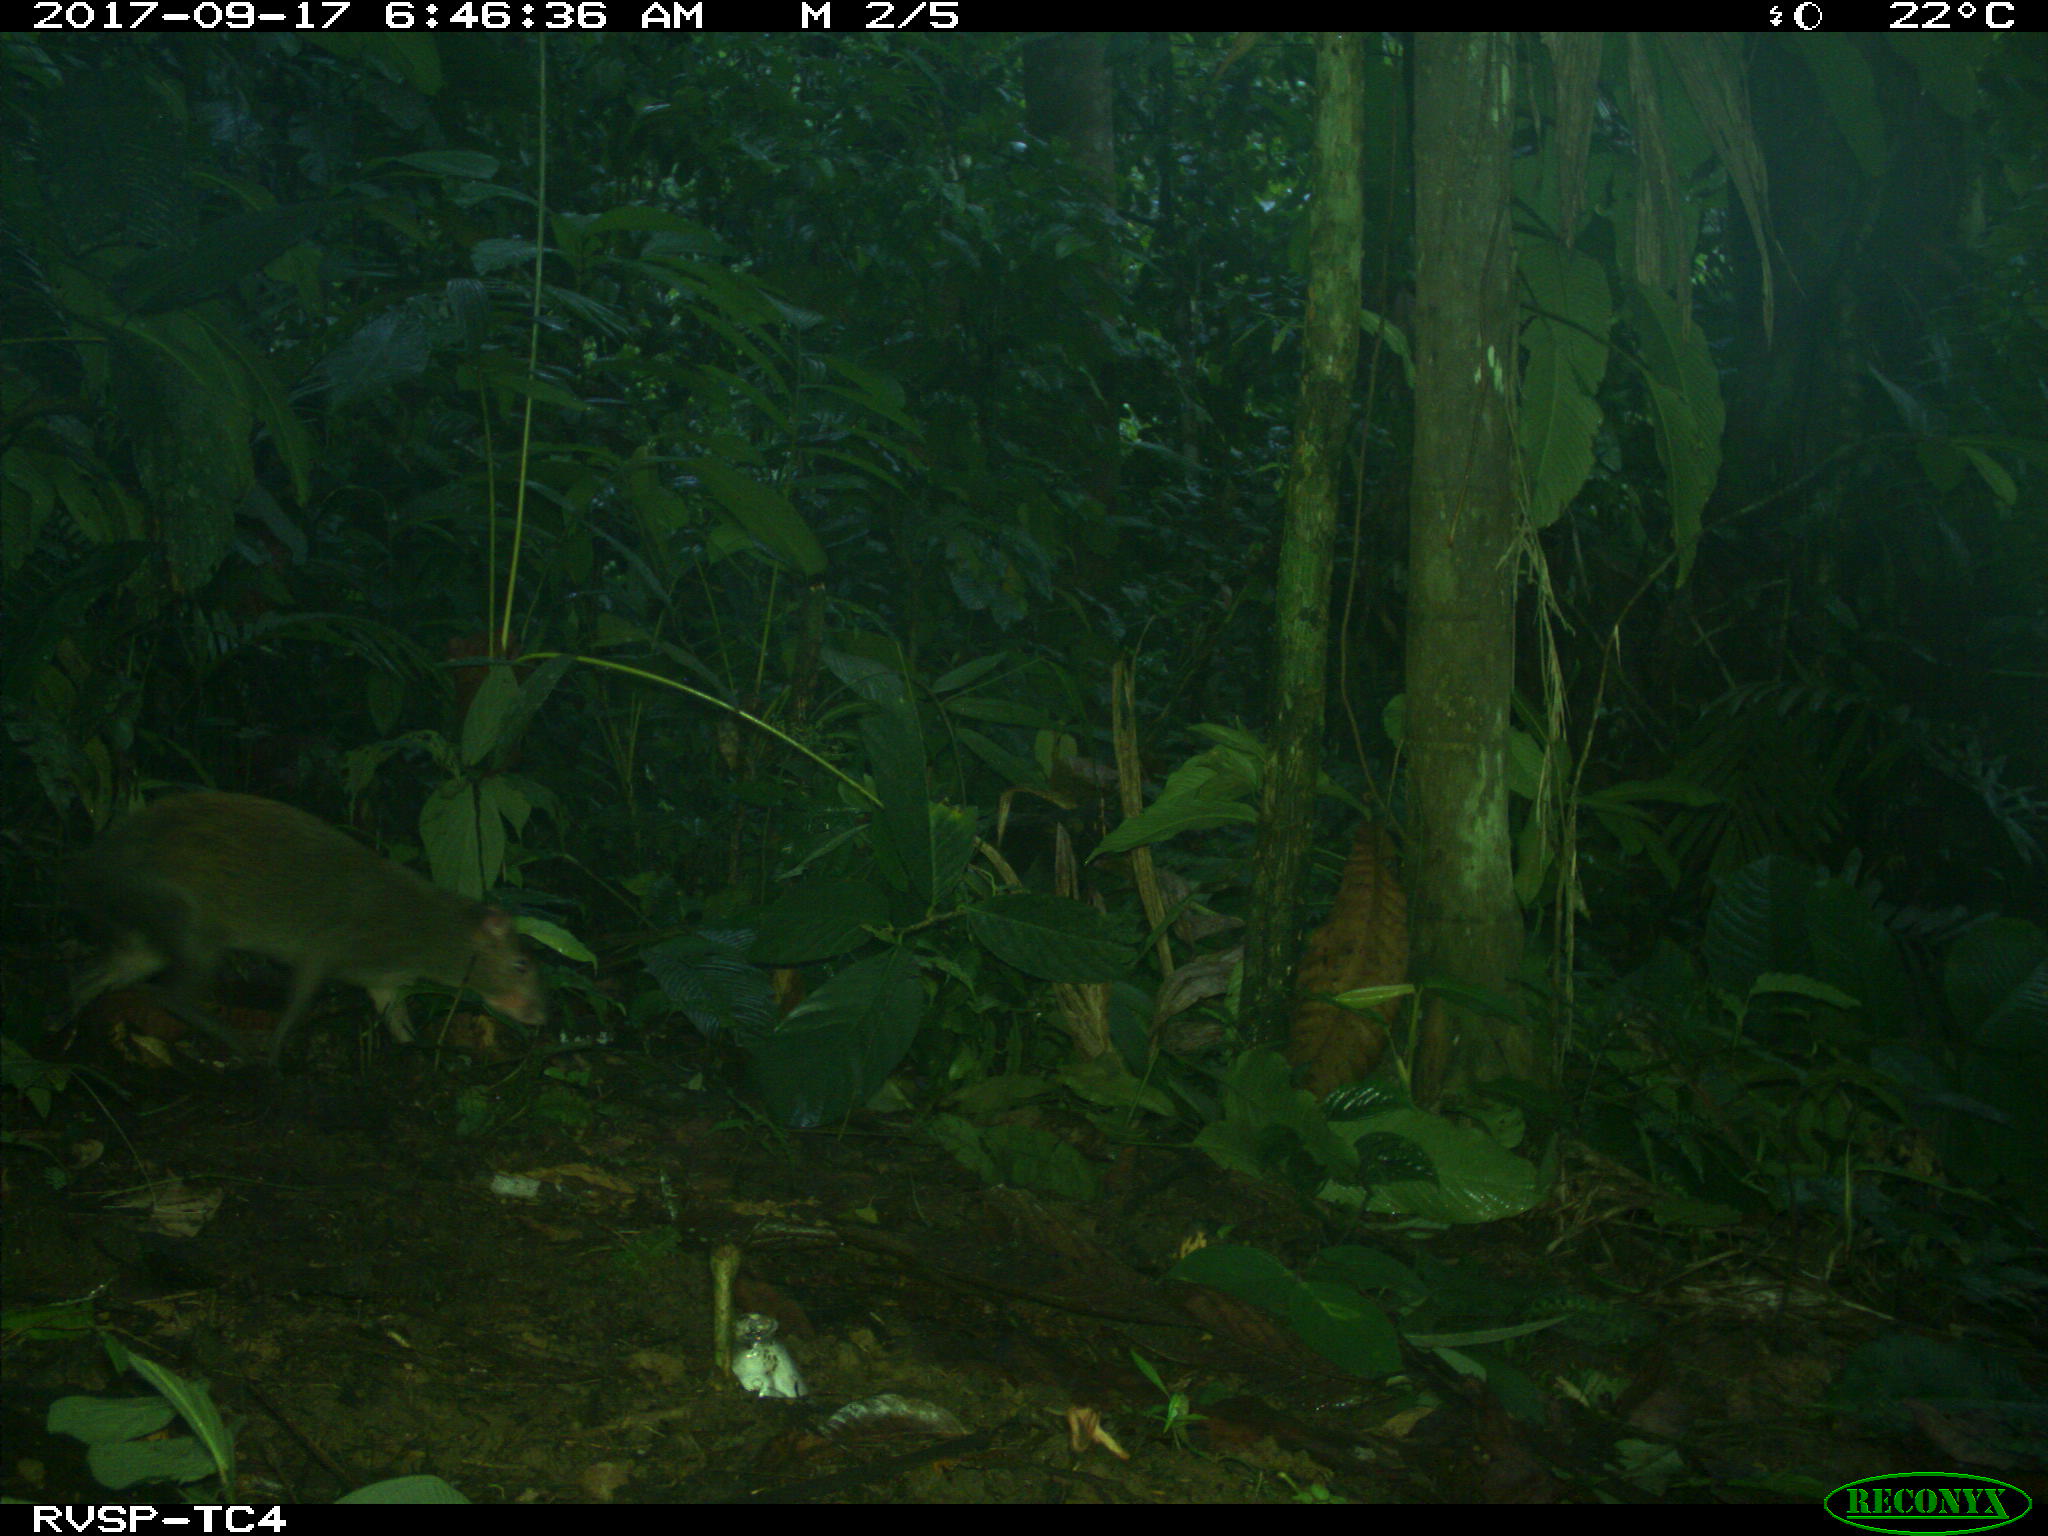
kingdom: Animalia
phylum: Chordata
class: Mammalia
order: Rodentia
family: Dasyproctidae
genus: Dasyprocta
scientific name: Dasyprocta punctata
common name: Central american agouti
